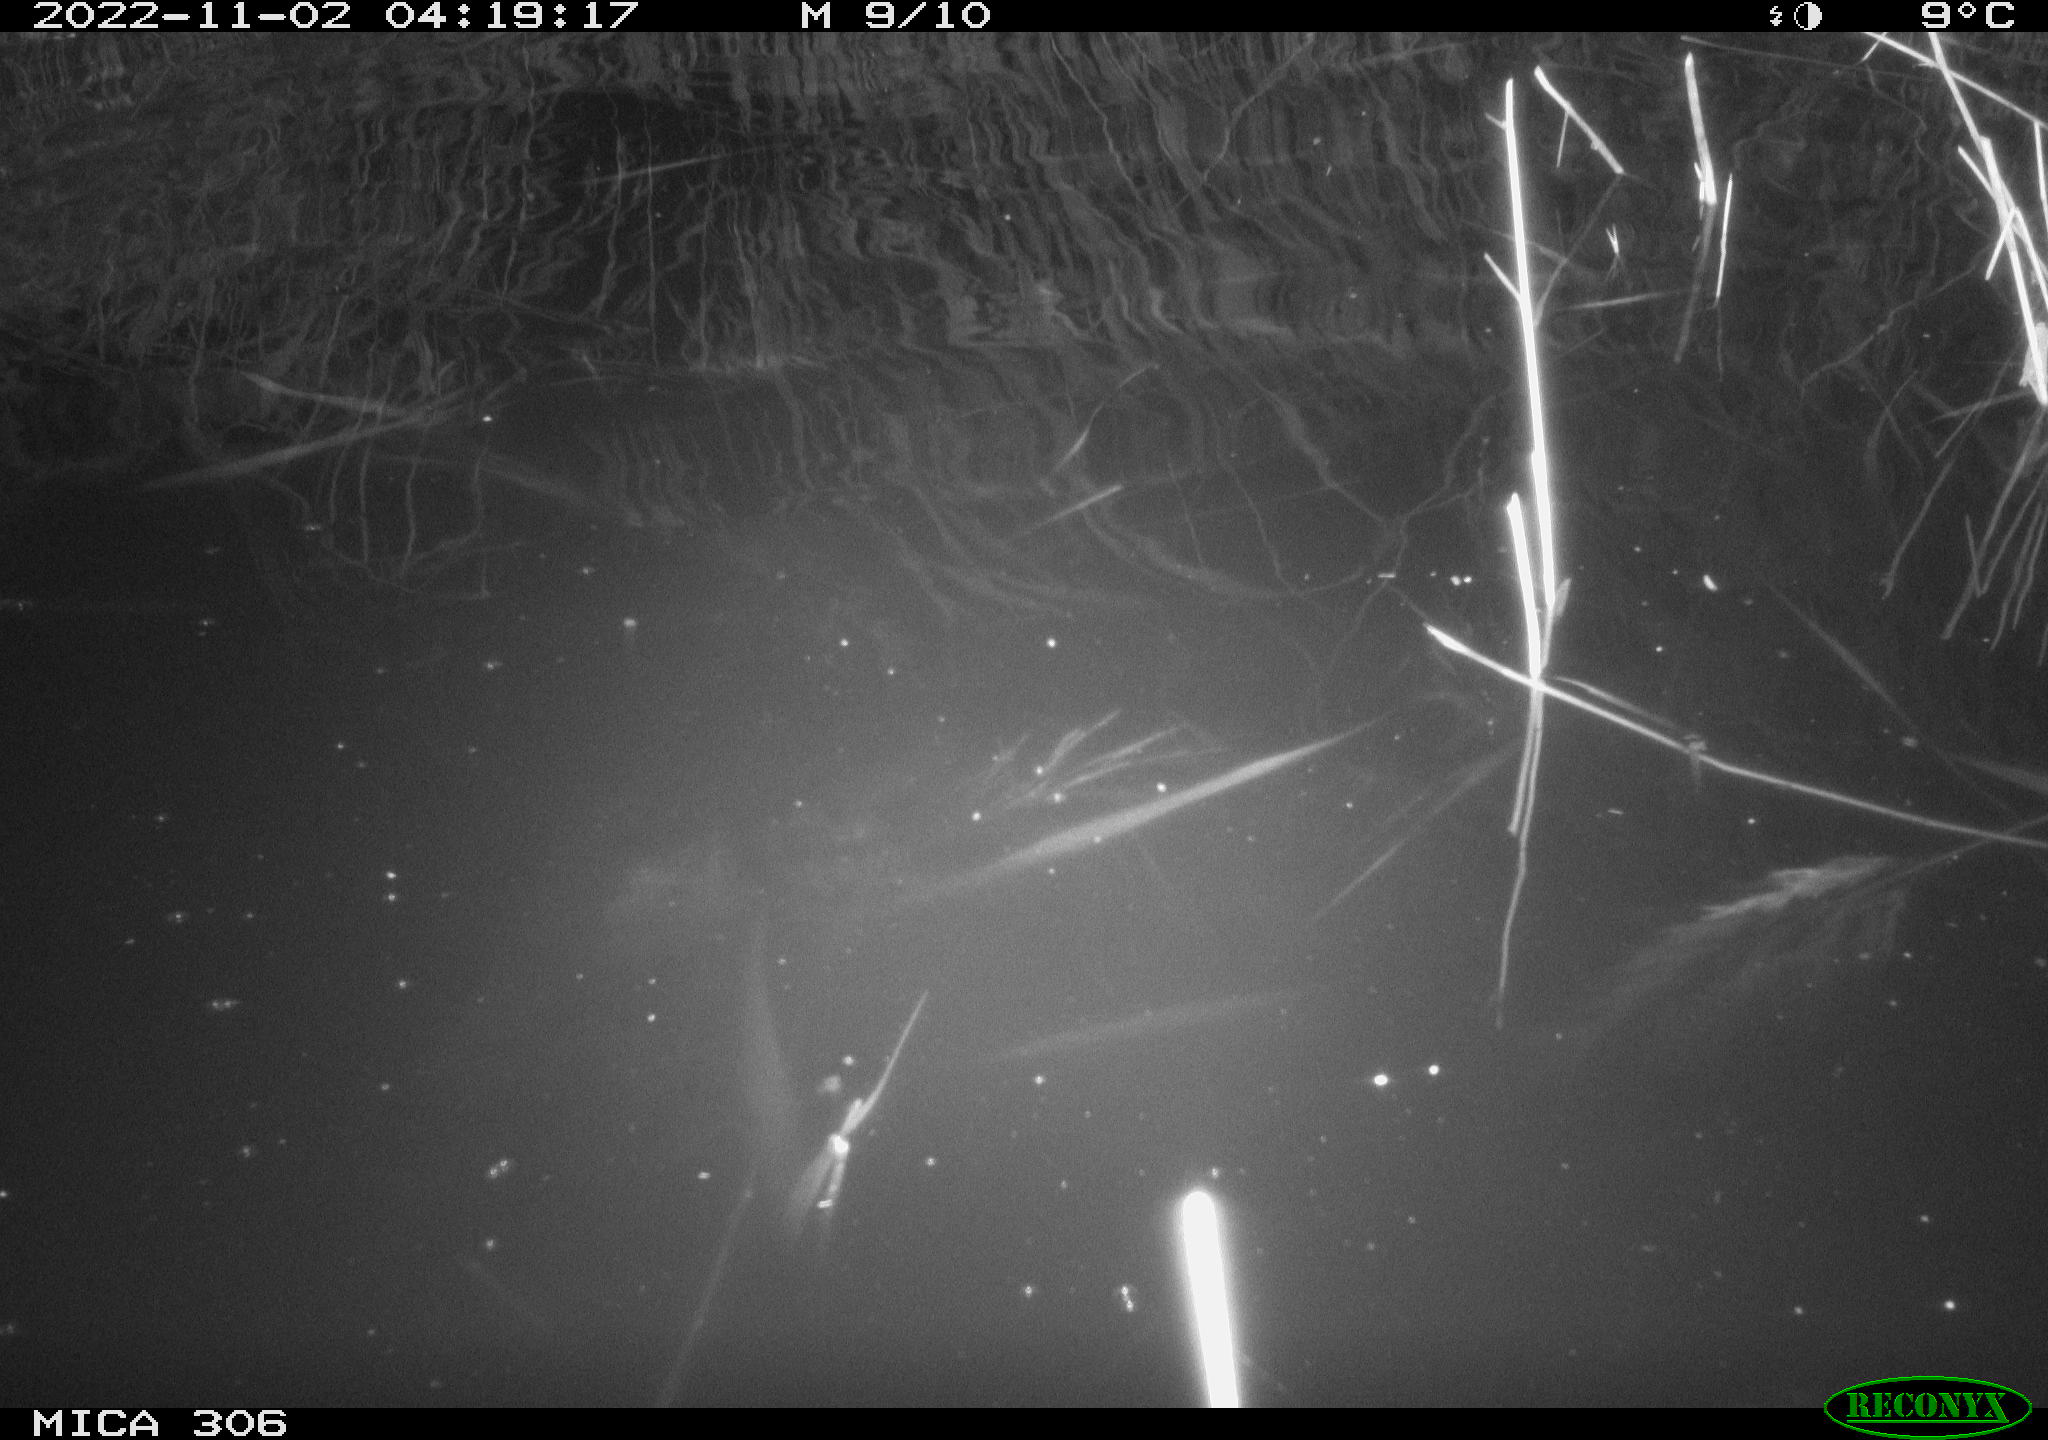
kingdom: Animalia
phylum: Chordata
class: Mammalia
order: Rodentia
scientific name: Rodentia
